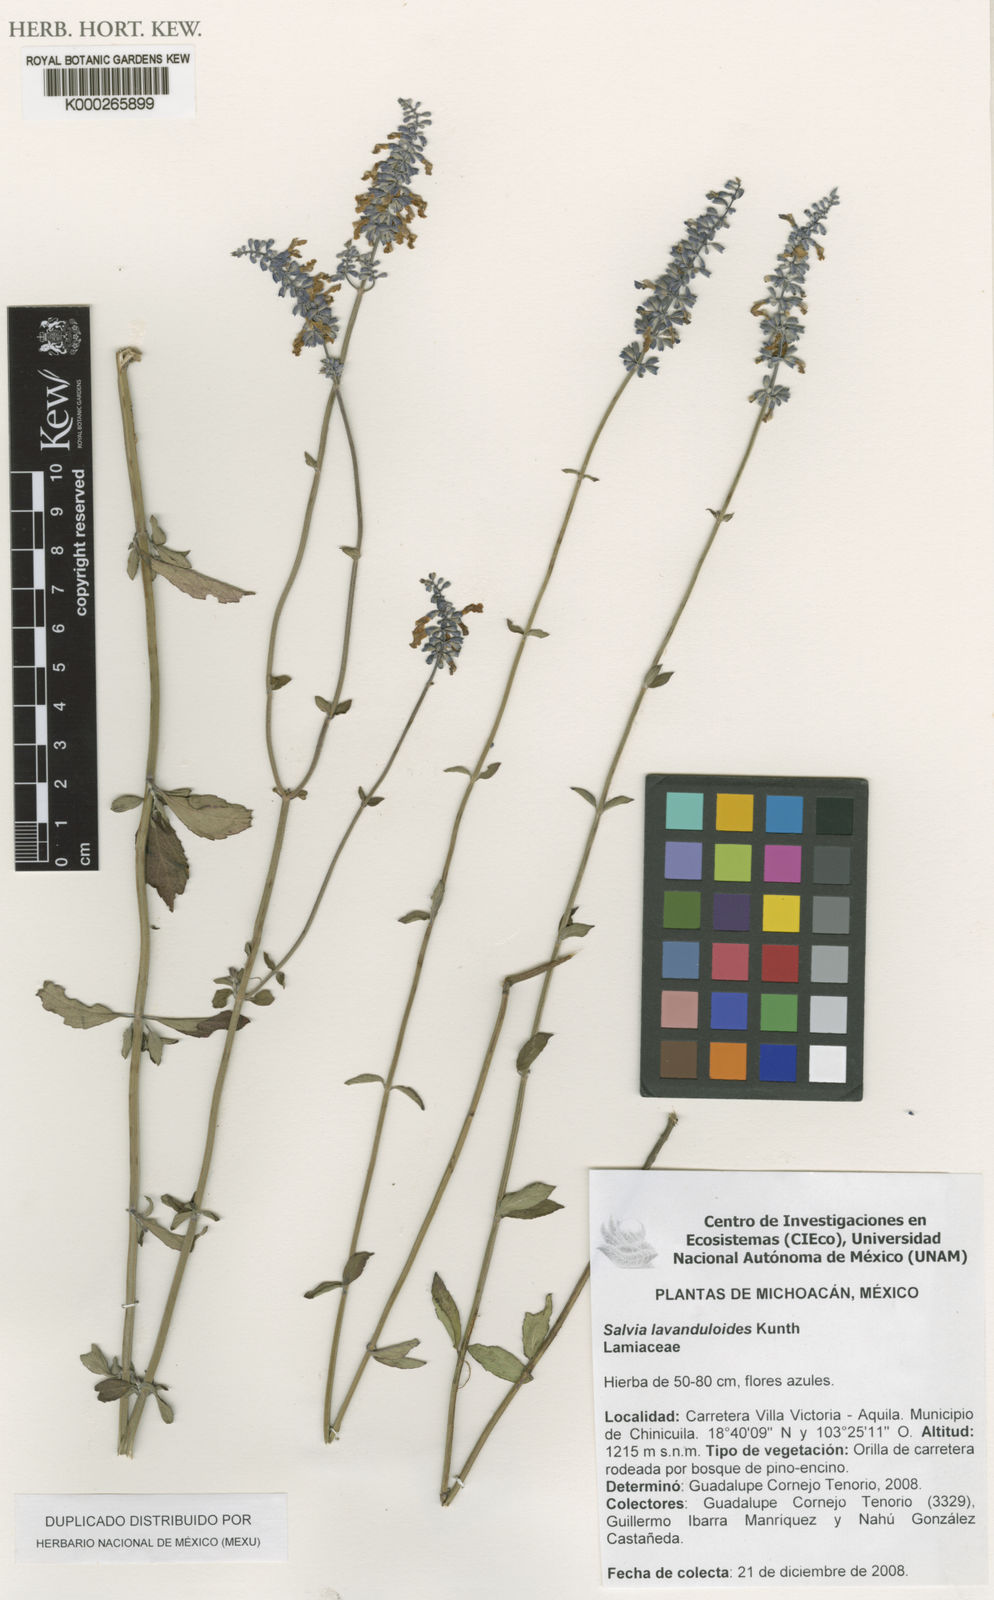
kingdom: Plantae
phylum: Tracheophyta
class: Magnoliopsida
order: Lamiales
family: Lamiaceae
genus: Salvia
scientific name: Salvia subobscura
